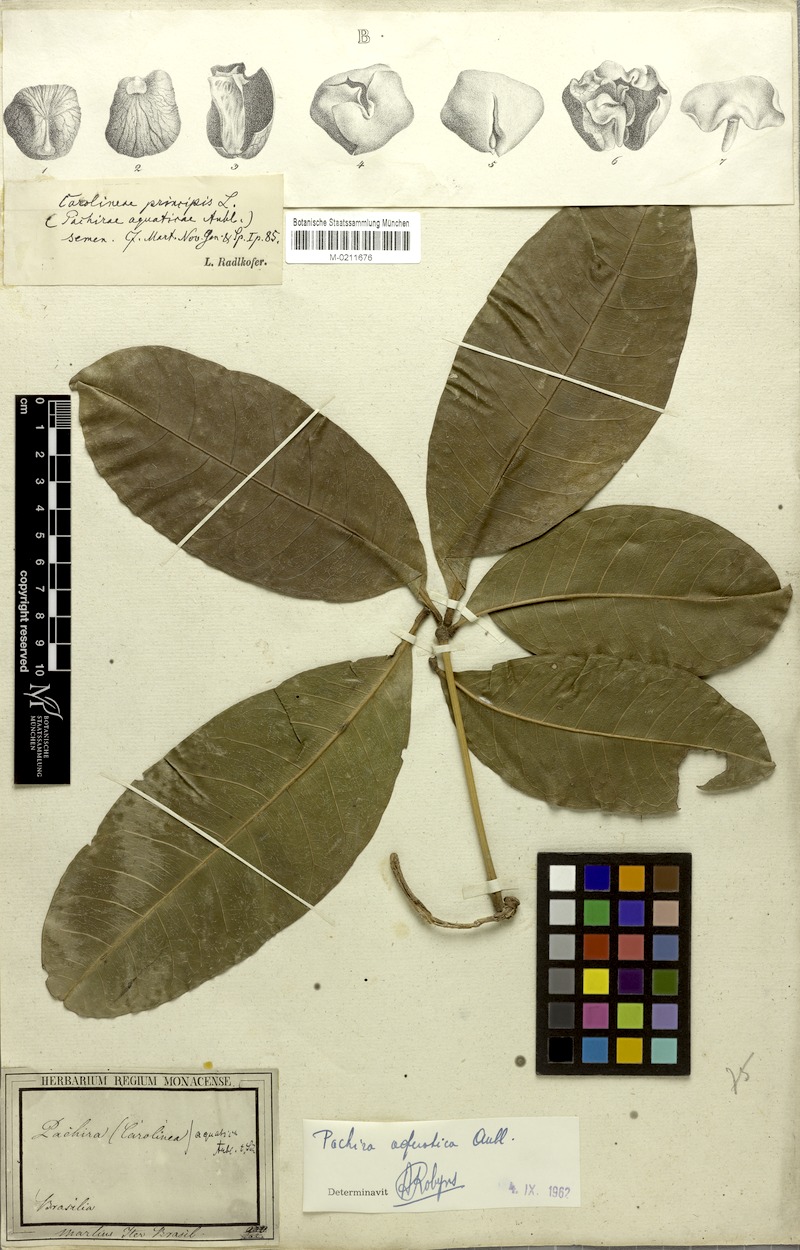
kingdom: Plantae
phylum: Tracheophyta
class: Magnoliopsida
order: Malvales
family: Malvaceae
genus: Pachira
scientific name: Pachira aquatica
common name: Provision-tree
